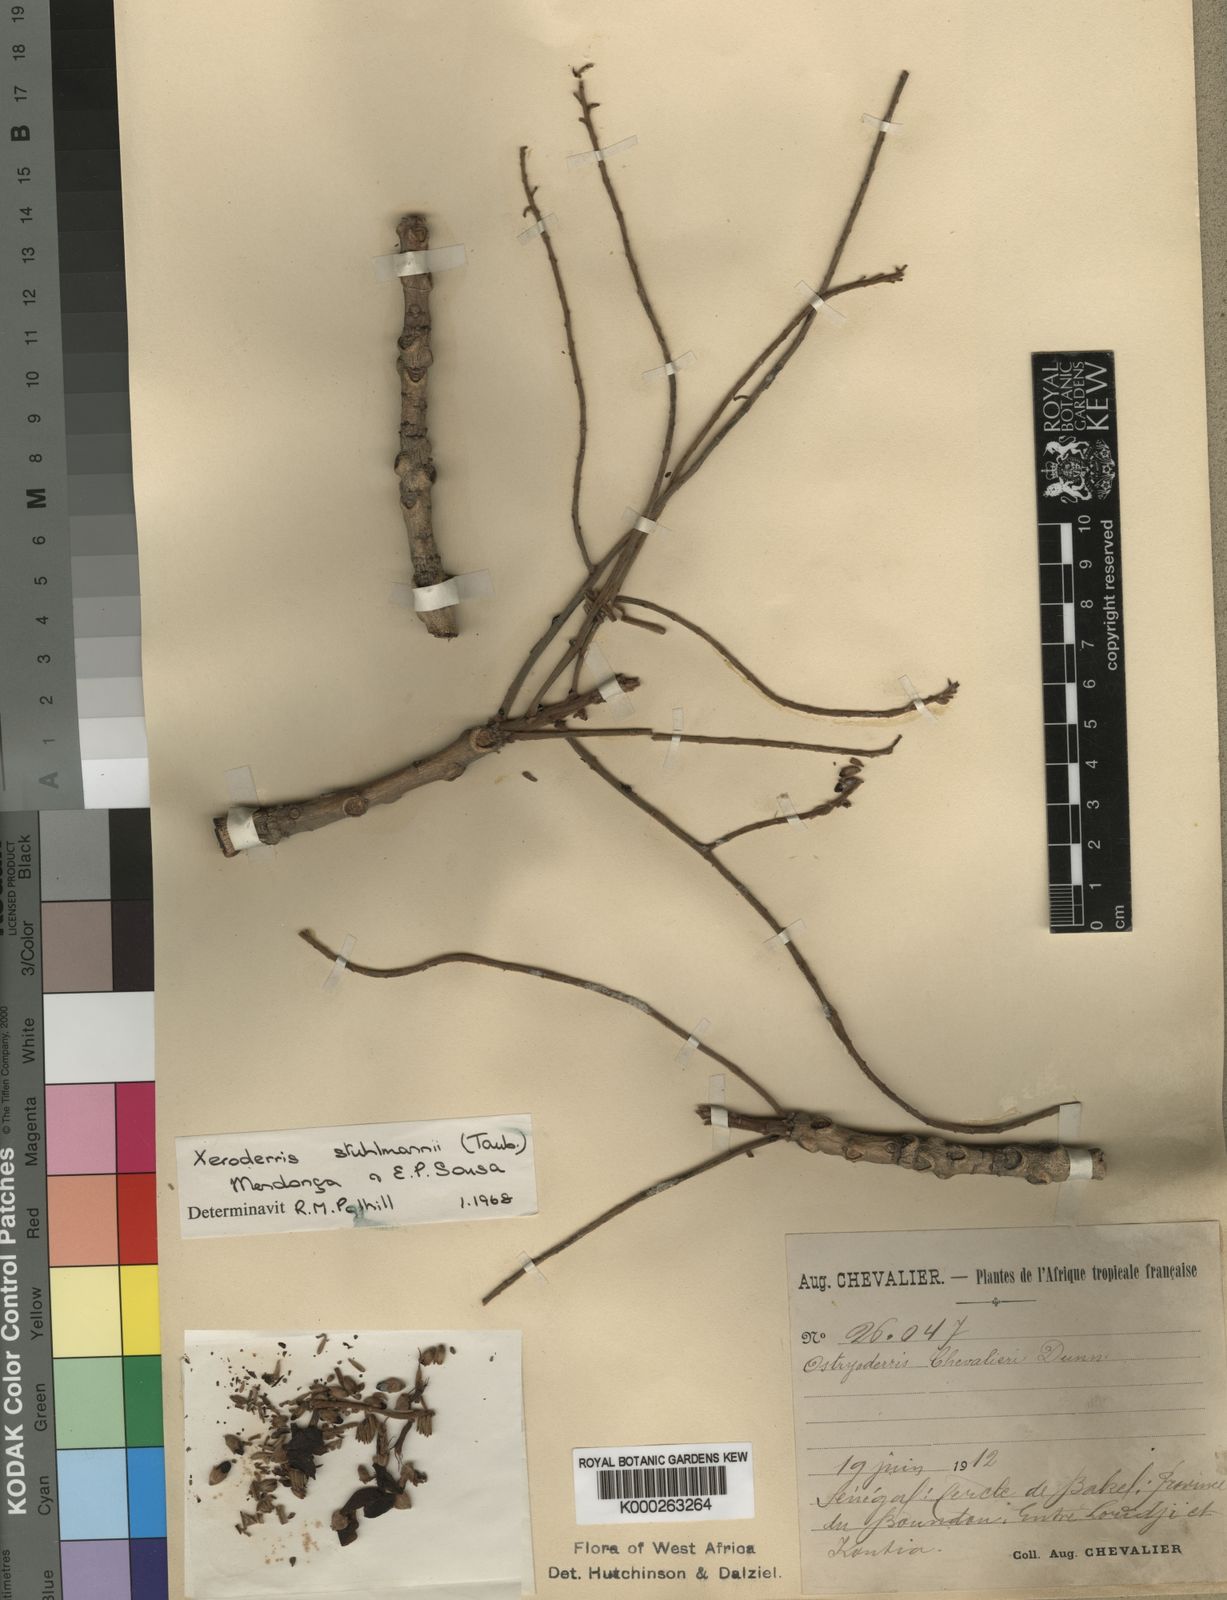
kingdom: Plantae
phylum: Tracheophyta
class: Magnoliopsida
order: Fabales
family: Fabaceae
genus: Aganope
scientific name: Aganope stuhlmannii
